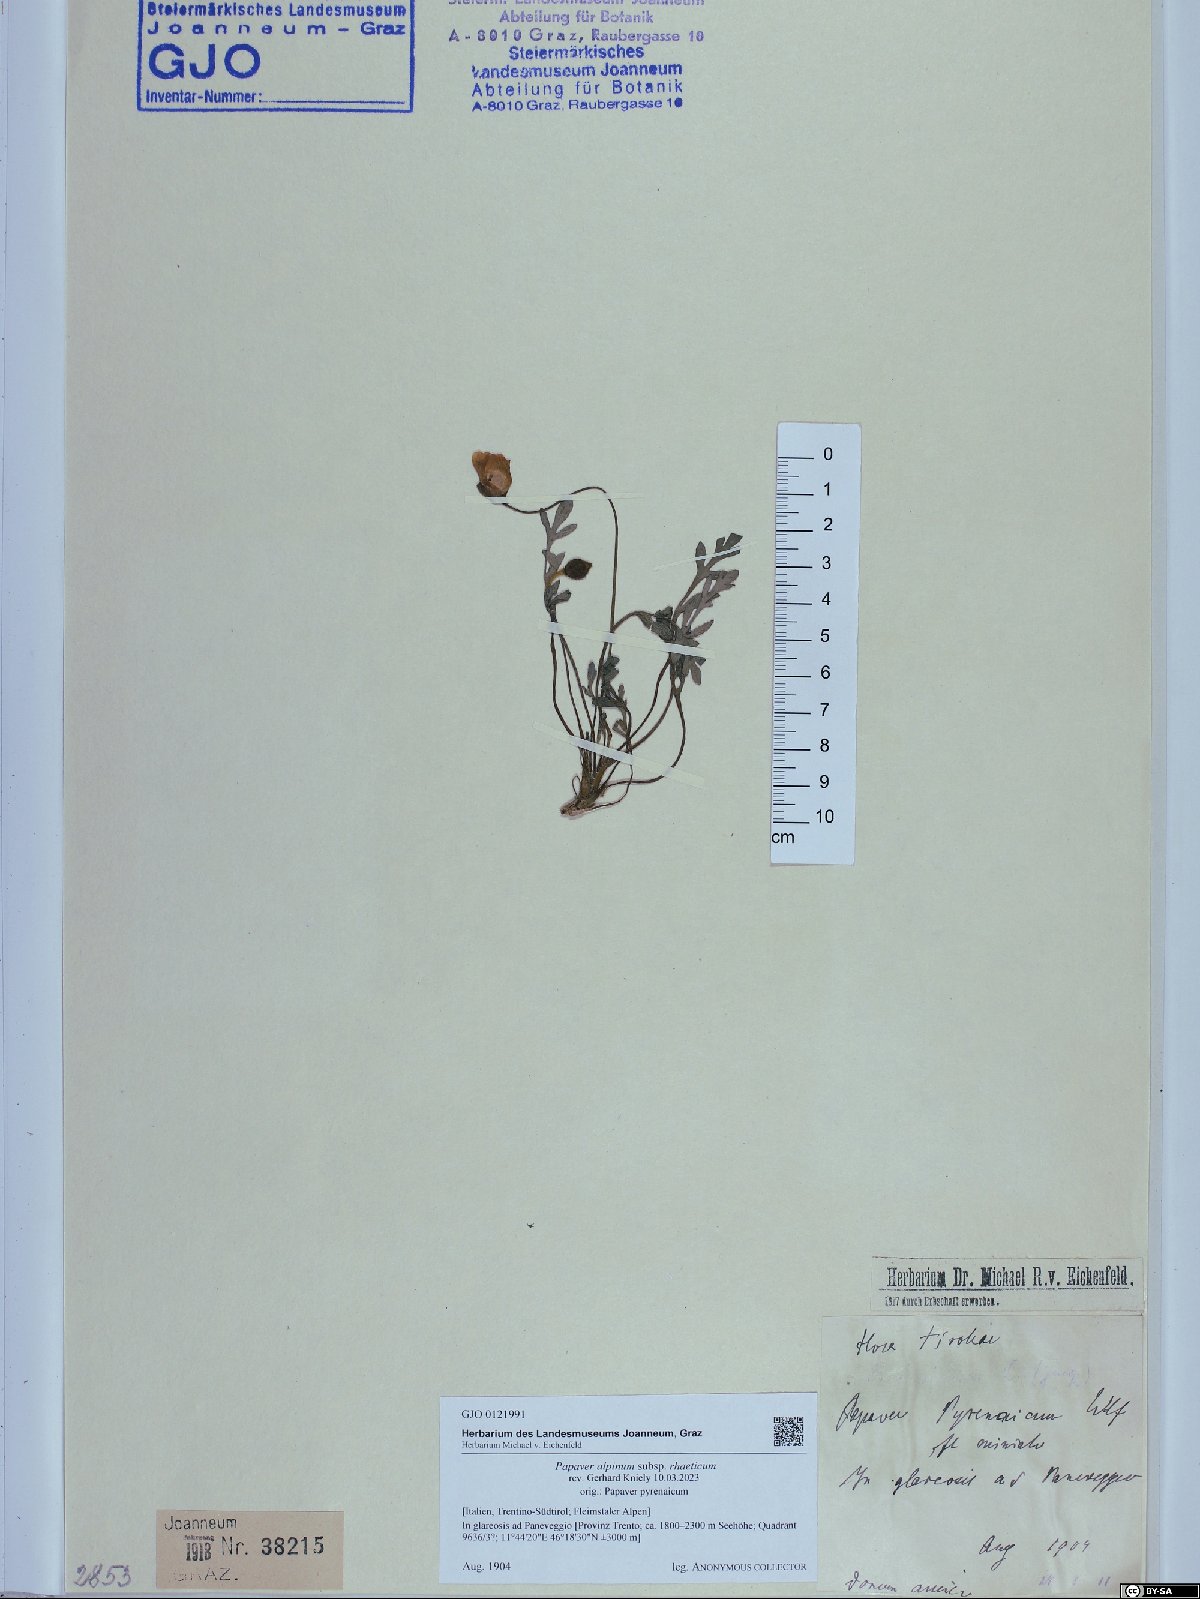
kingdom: Plantae
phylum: Tracheophyta
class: Magnoliopsida
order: Ranunculales
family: Papaveraceae
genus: Papaver
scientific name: Papaver alpinum
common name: Austrian poppy
